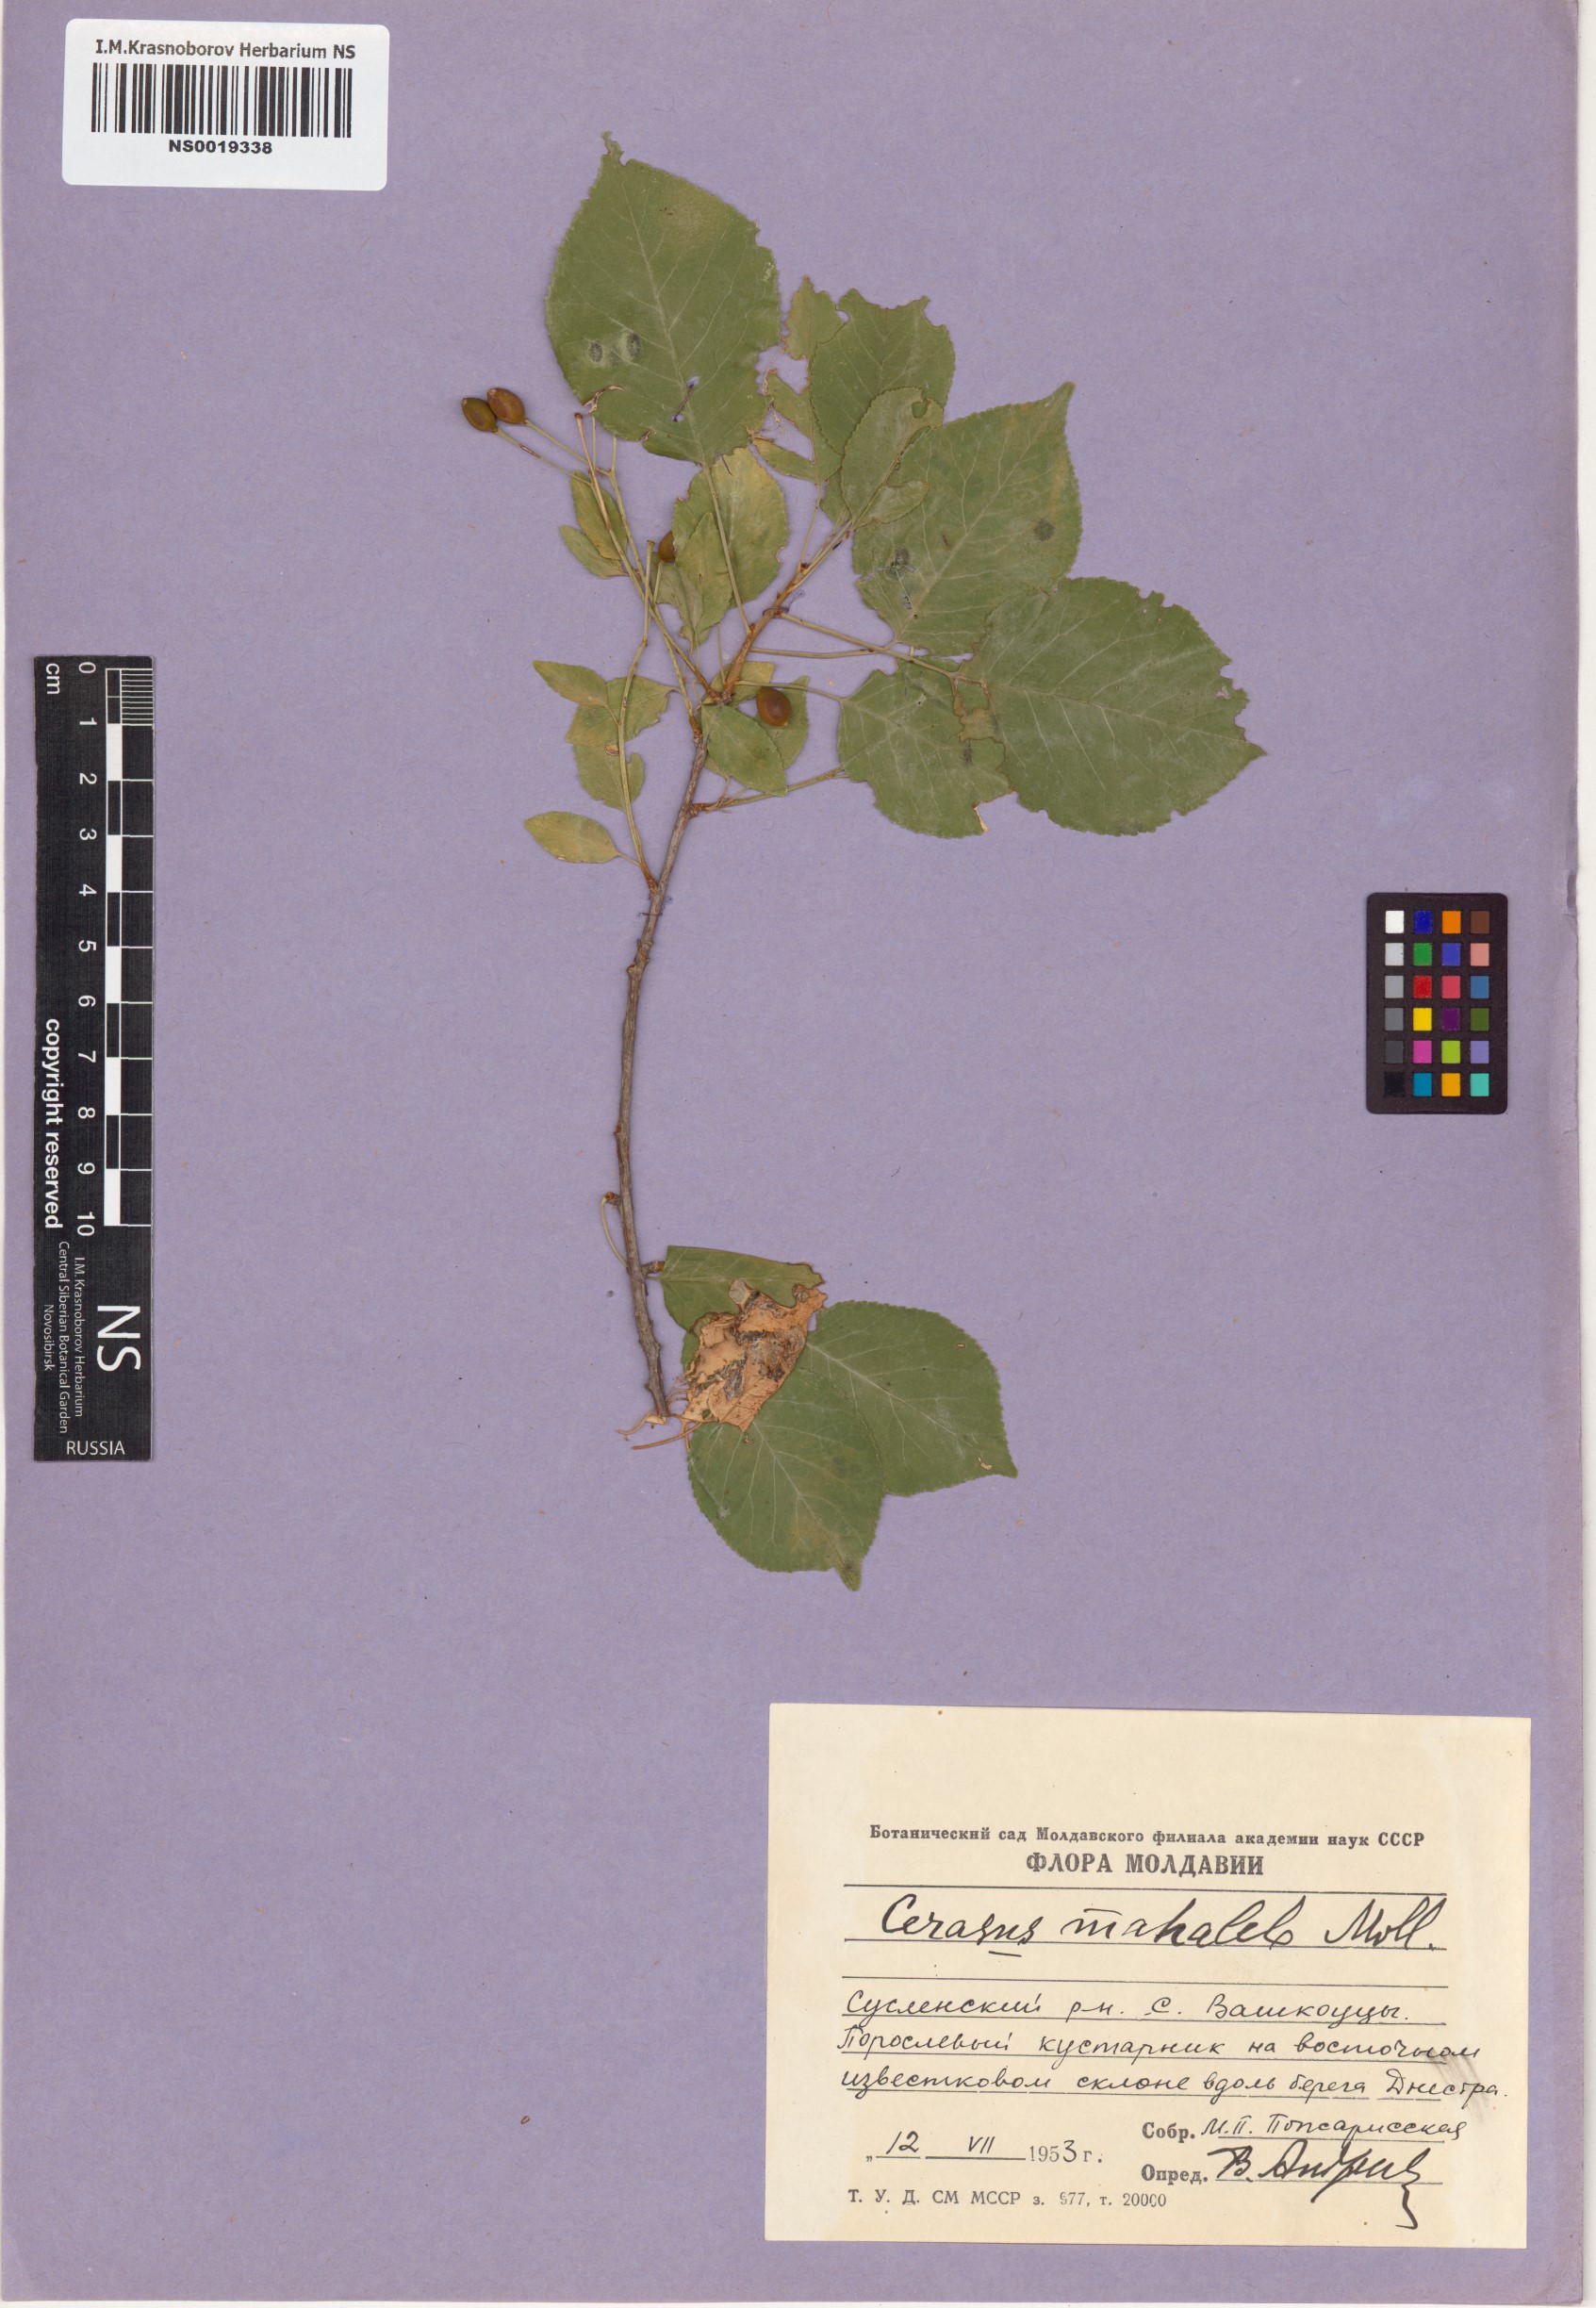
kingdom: Plantae
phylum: Tracheophyta
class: Magnoliopsida
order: Rosales
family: Rosaceae
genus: Prunus
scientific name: Prunus mahaleb
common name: Mahaleb cherry
